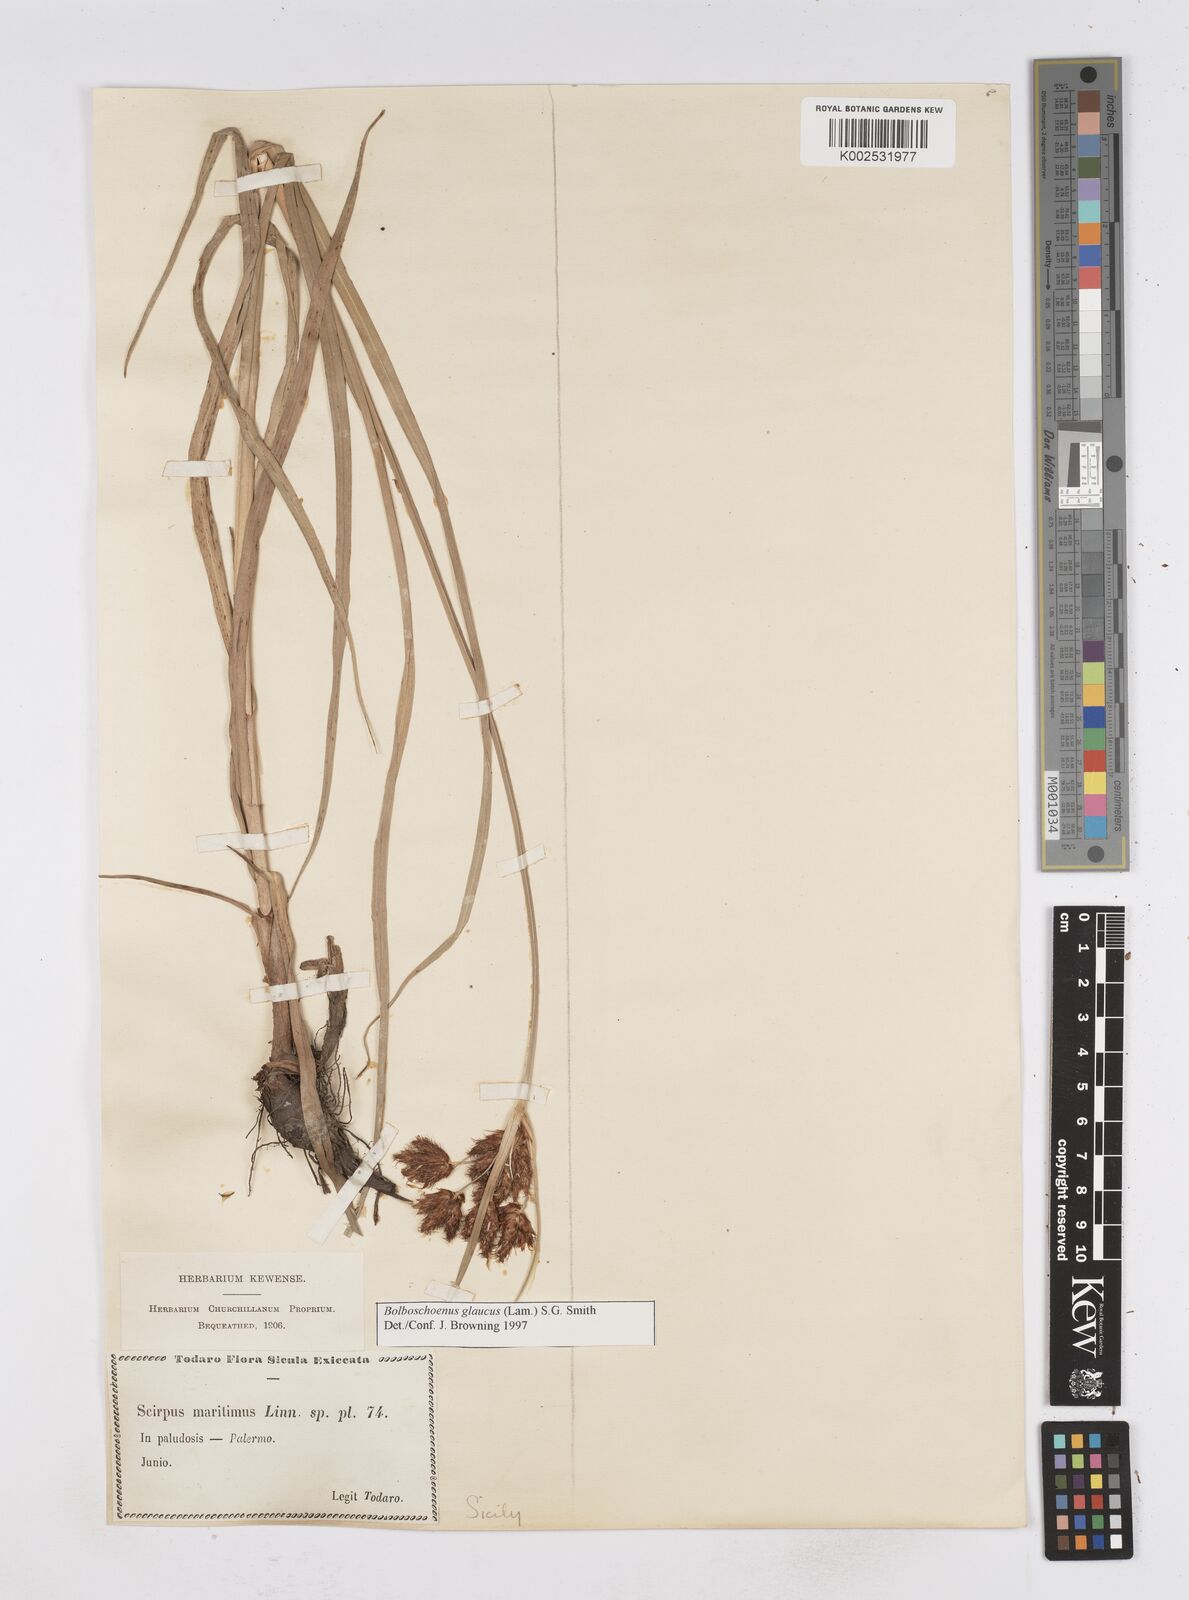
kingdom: Plantae
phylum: Tracheophyta
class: Liliopsida
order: Poales
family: Cyperaceae
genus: Bolboschoenus
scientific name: Bolboschoenus maritimus
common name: Sea club-rush
